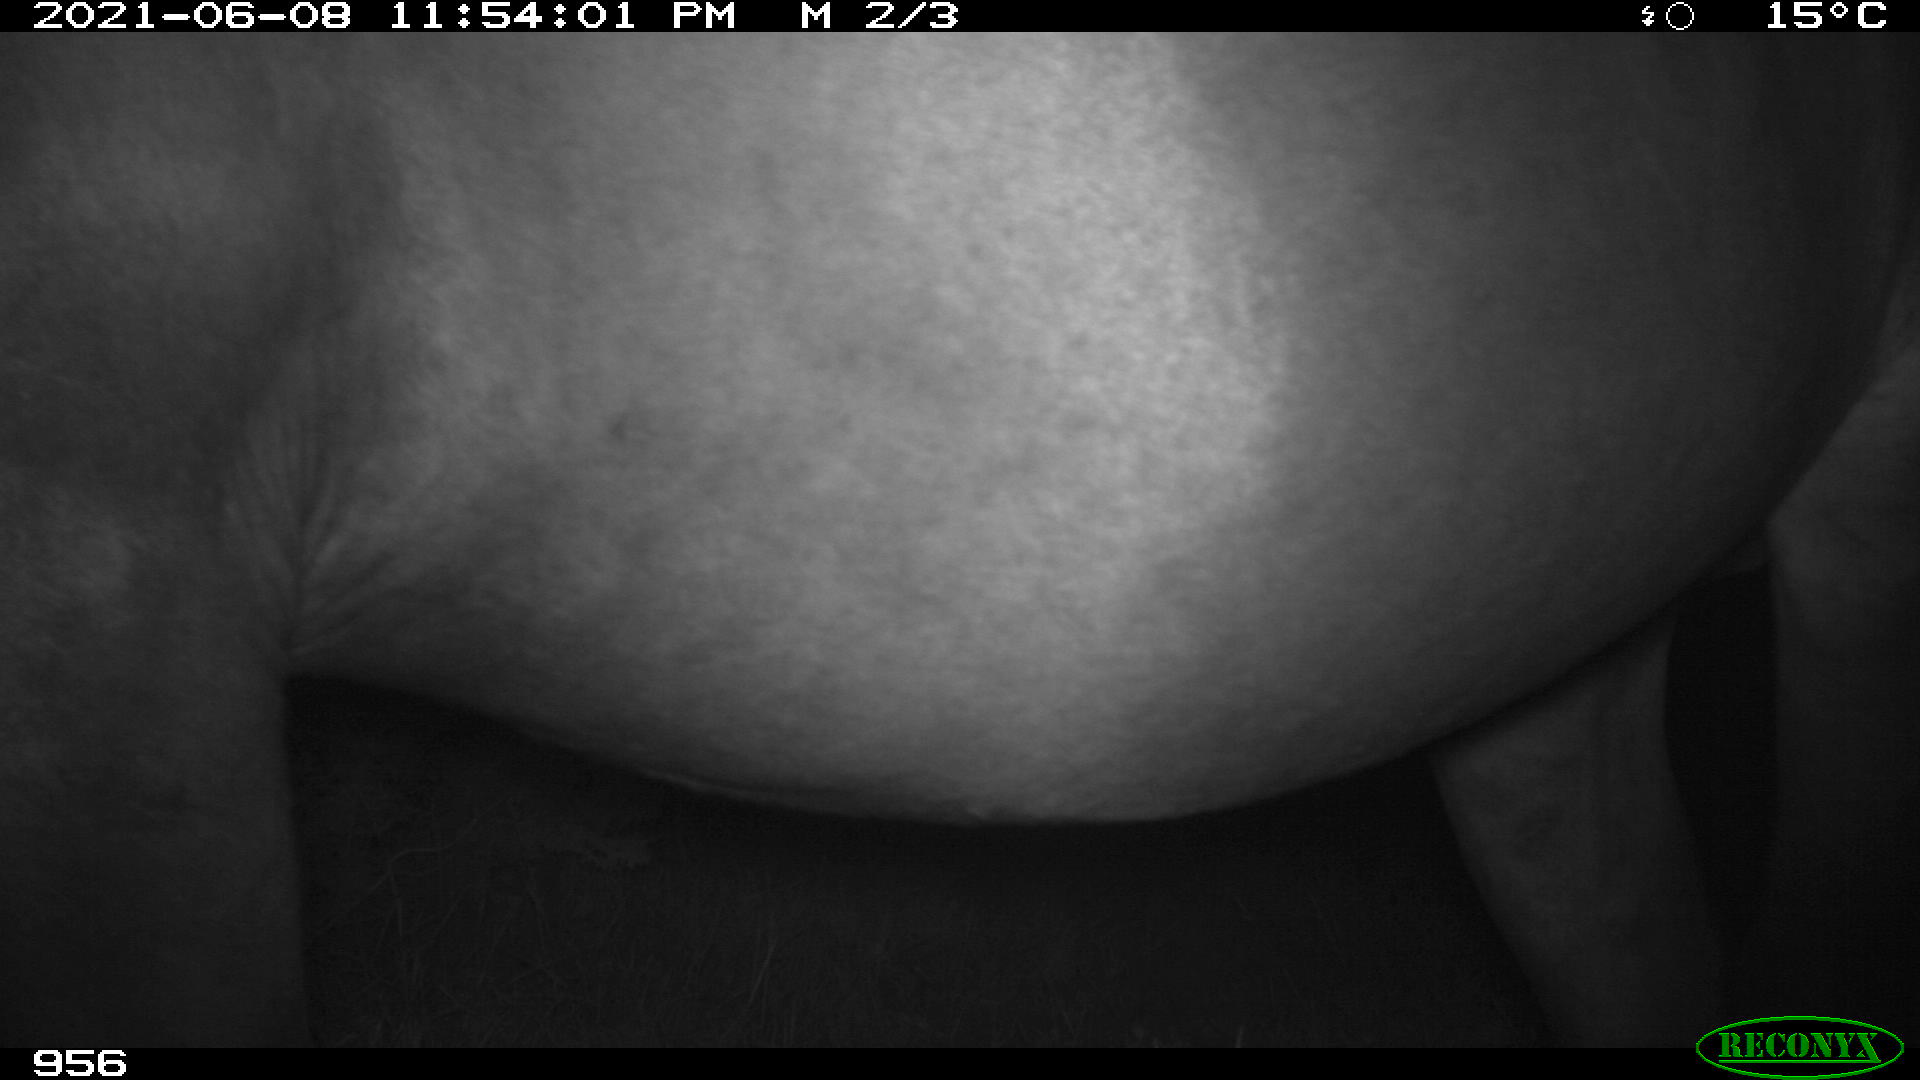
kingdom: Animalia
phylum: Chordata
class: Mammalia
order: Perissodactyla
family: Equidae
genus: Equus
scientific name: Equus caballus
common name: Horse
